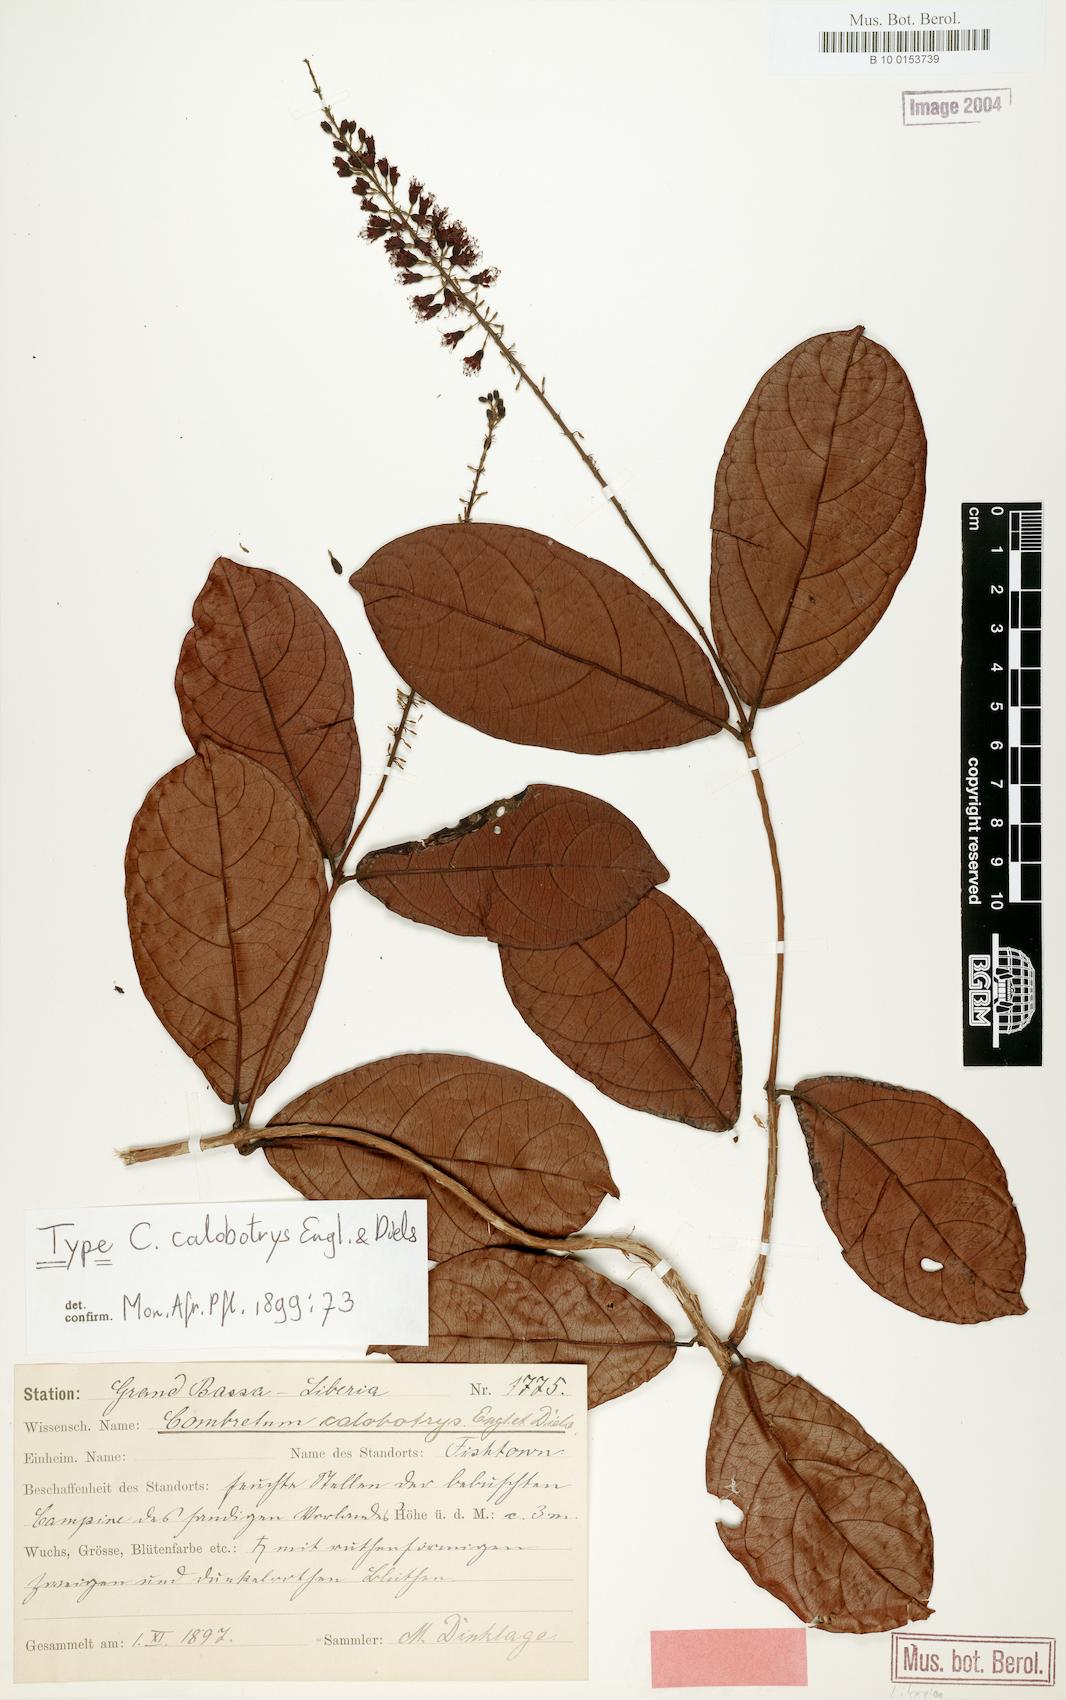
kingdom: Plantae
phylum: Tracheophyta
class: Magnoliopsida
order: Myrtales
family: Combretaceae
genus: Combretum
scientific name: Combretum mannii
